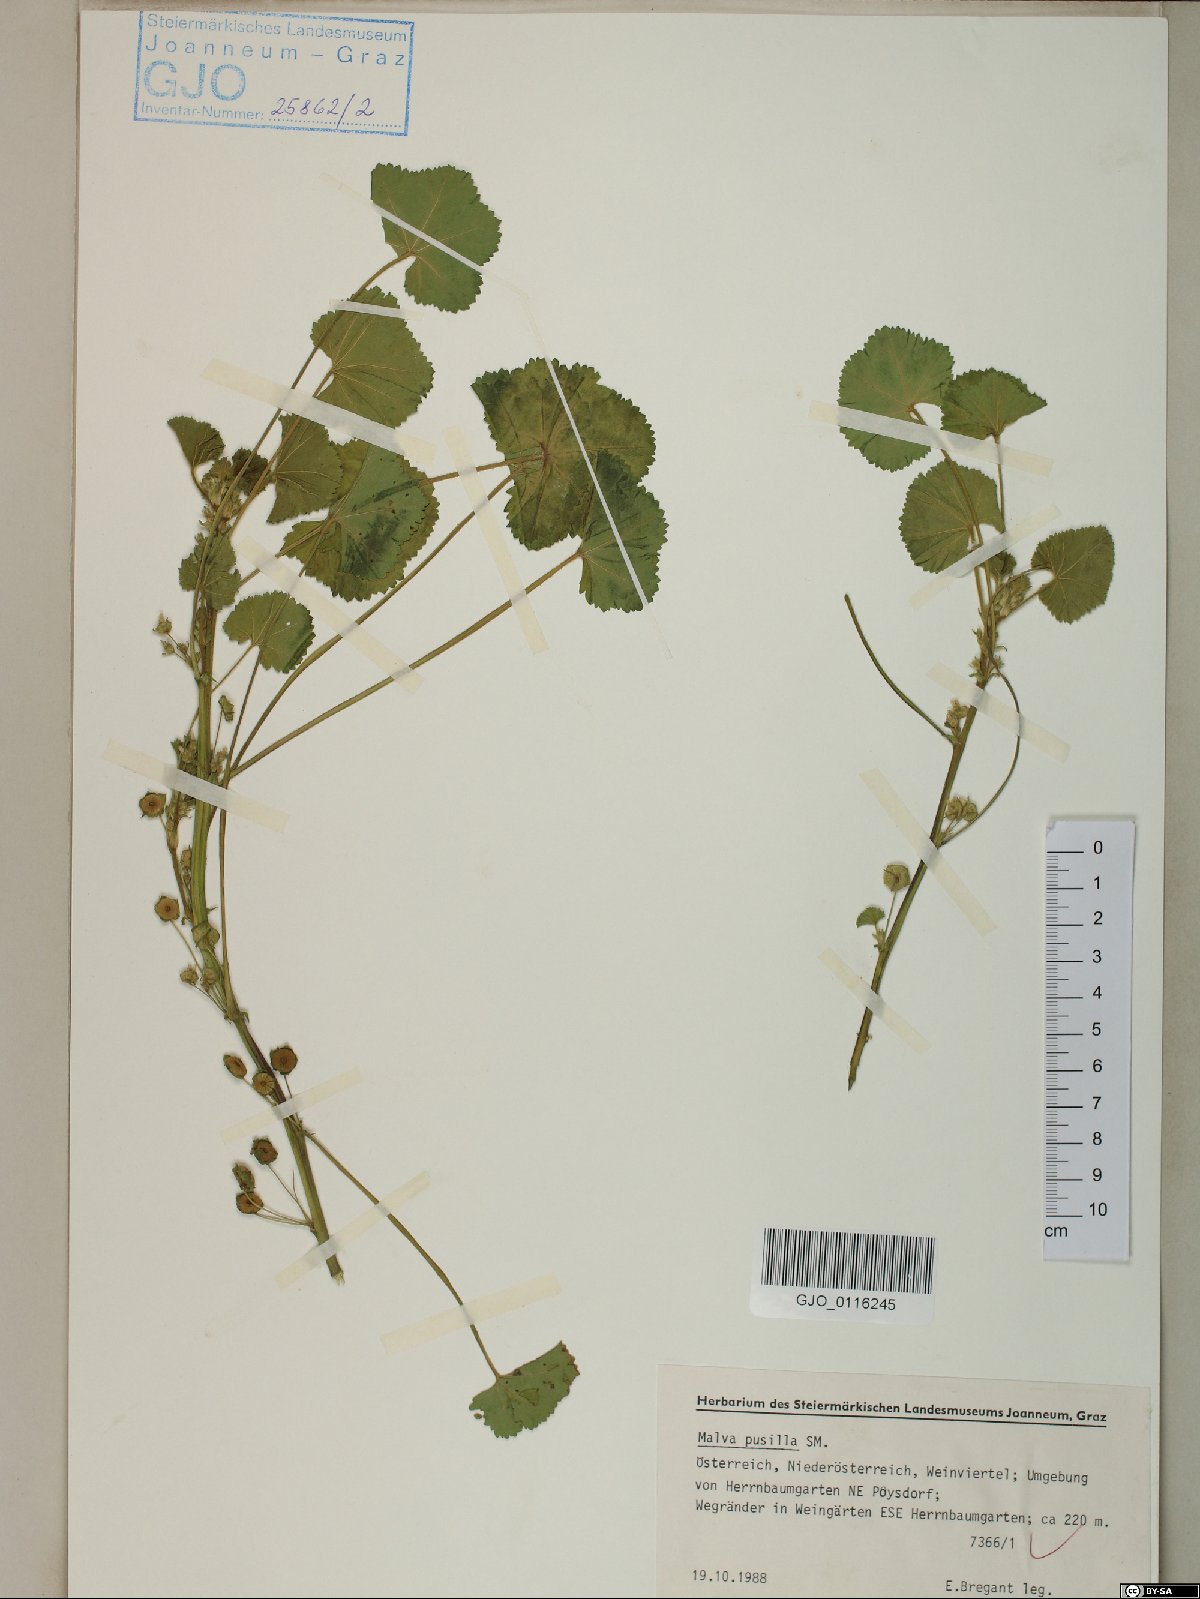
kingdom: Plantae
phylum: Tracheophyta
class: Magnoliopsida
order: Malvales
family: Malvaceae
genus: Malva
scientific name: Malva pusilla
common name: Small mallow
